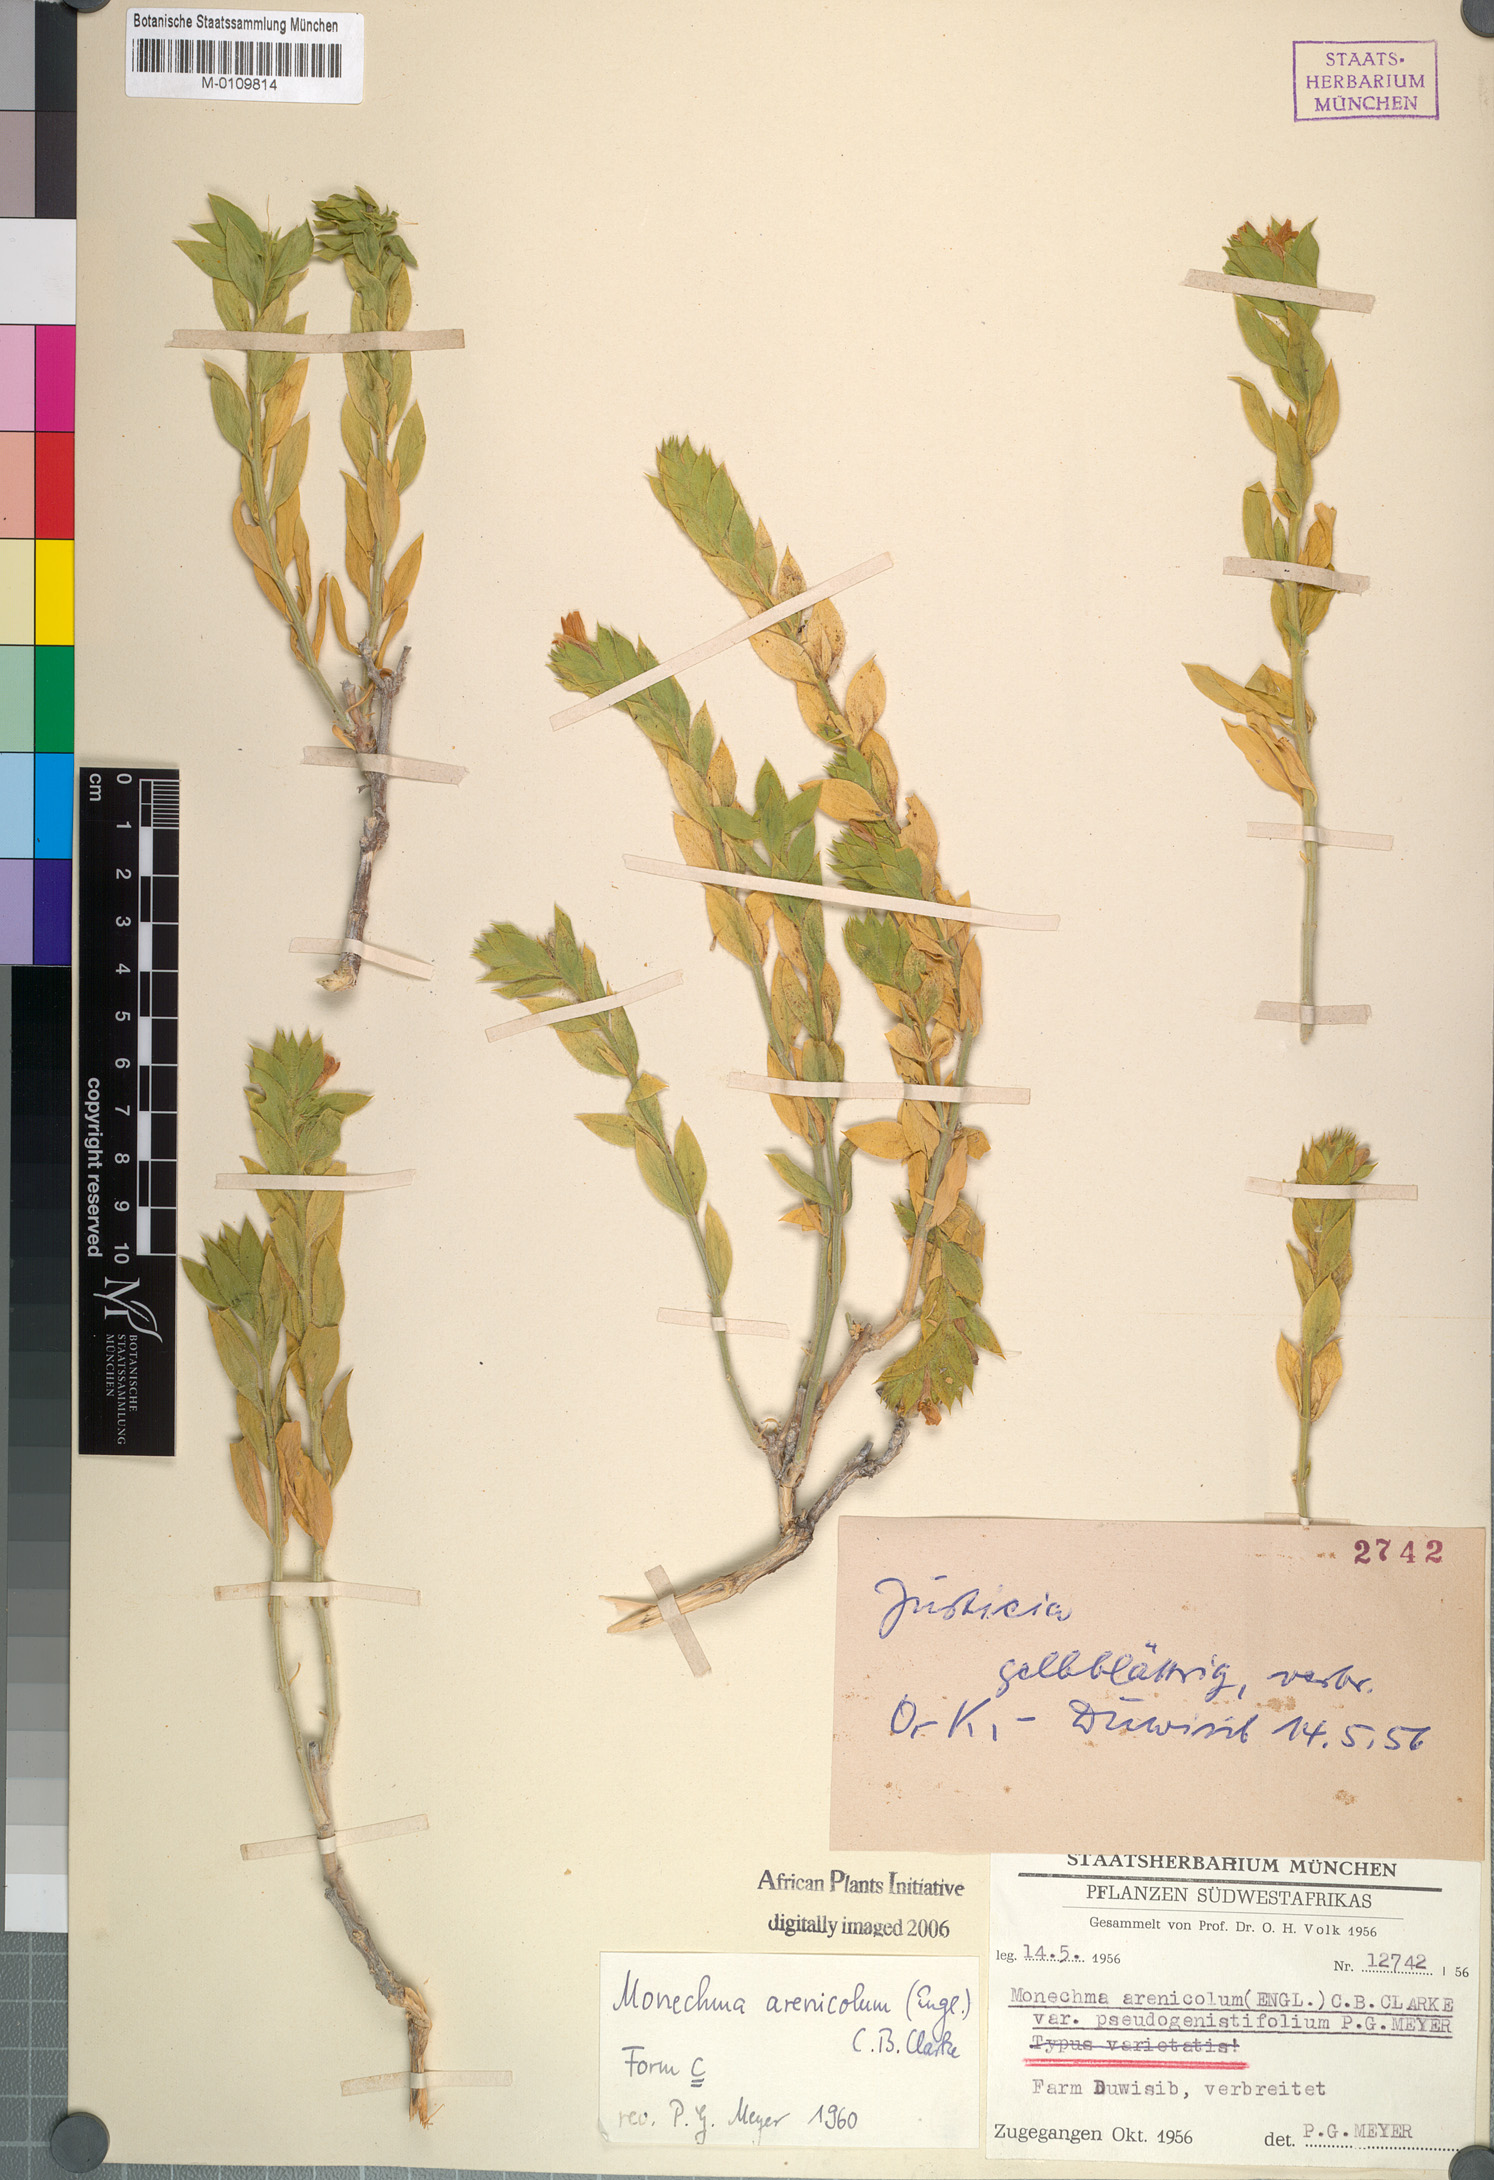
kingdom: Plantae
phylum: Tracheophyta
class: Magnoliopsida
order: Lamiales
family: Acanthaceae
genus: Monechma
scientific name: Monechma cleomoides
